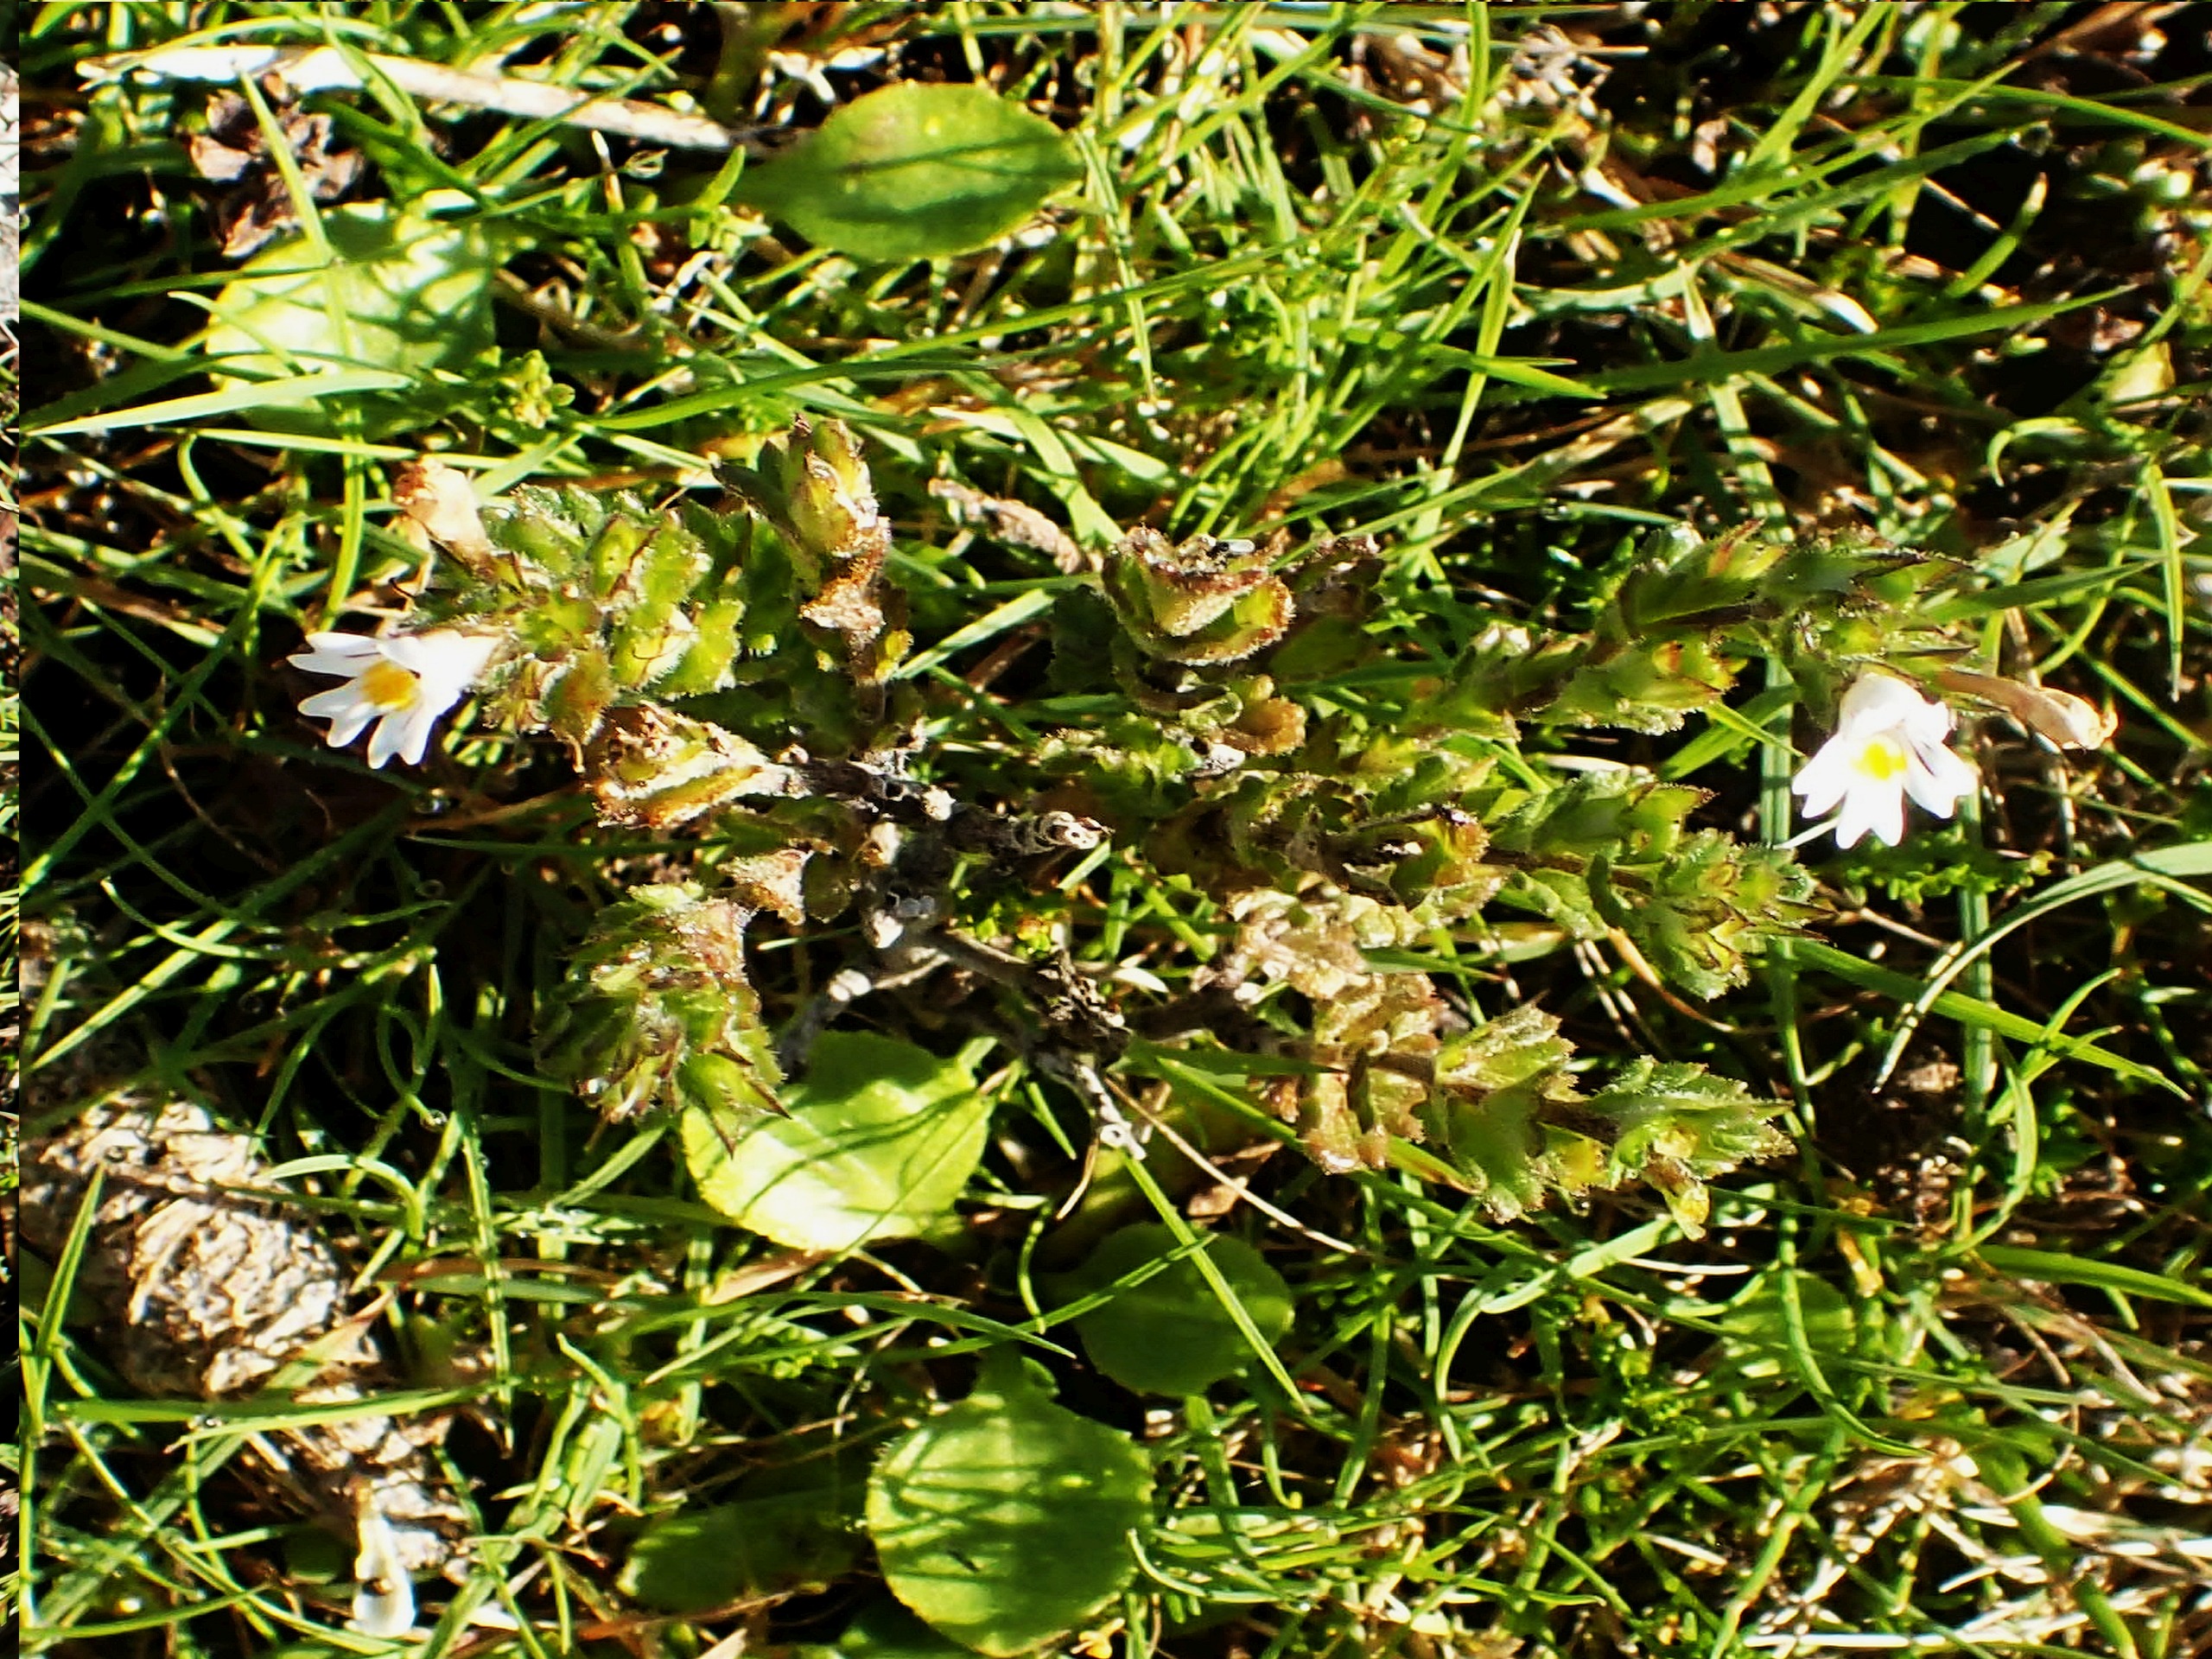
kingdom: Plantae
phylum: Tracheophyta
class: Magnoliopsida
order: Lamiales
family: Orobanchaceae
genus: Euphrasia
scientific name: Euphrasia nemorosa
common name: Kort øjentrøst
